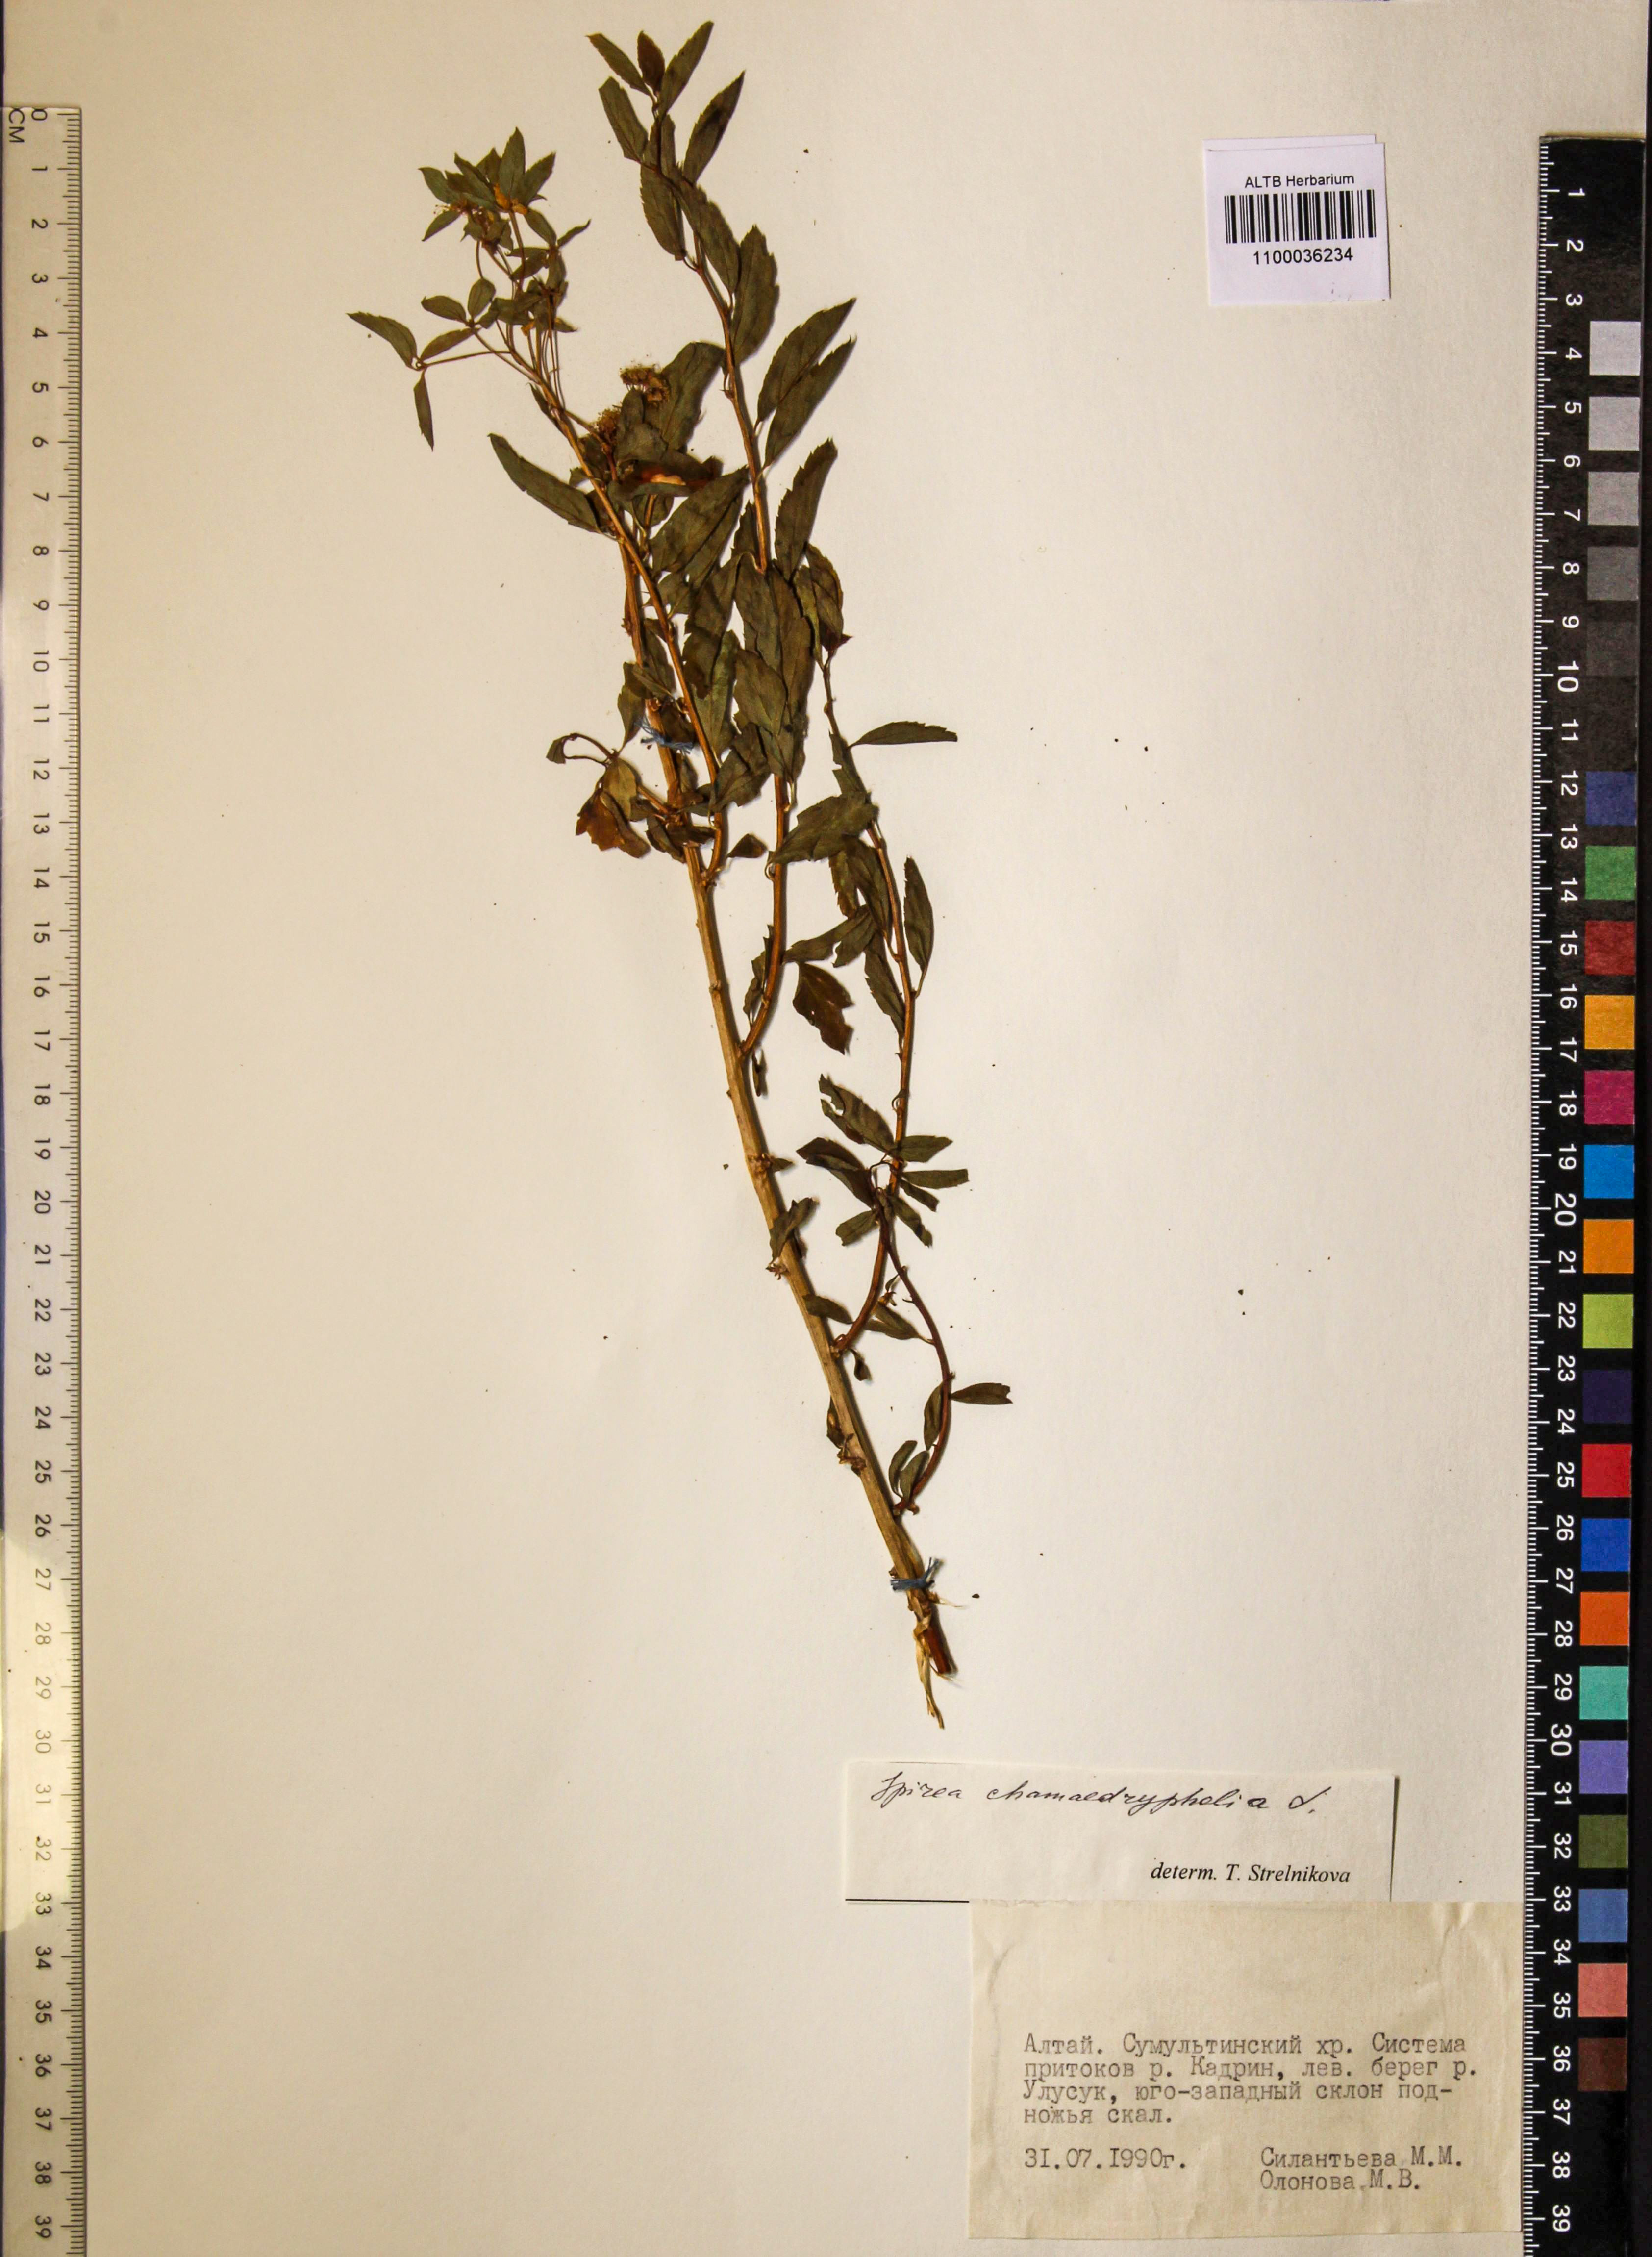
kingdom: Plantae
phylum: Tracheophyta
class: Magnoliopsida
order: Rosales
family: Rosaceae
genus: Spiraea
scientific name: Spiraea chamaedryfolia
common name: Elm-leaved spiraea
